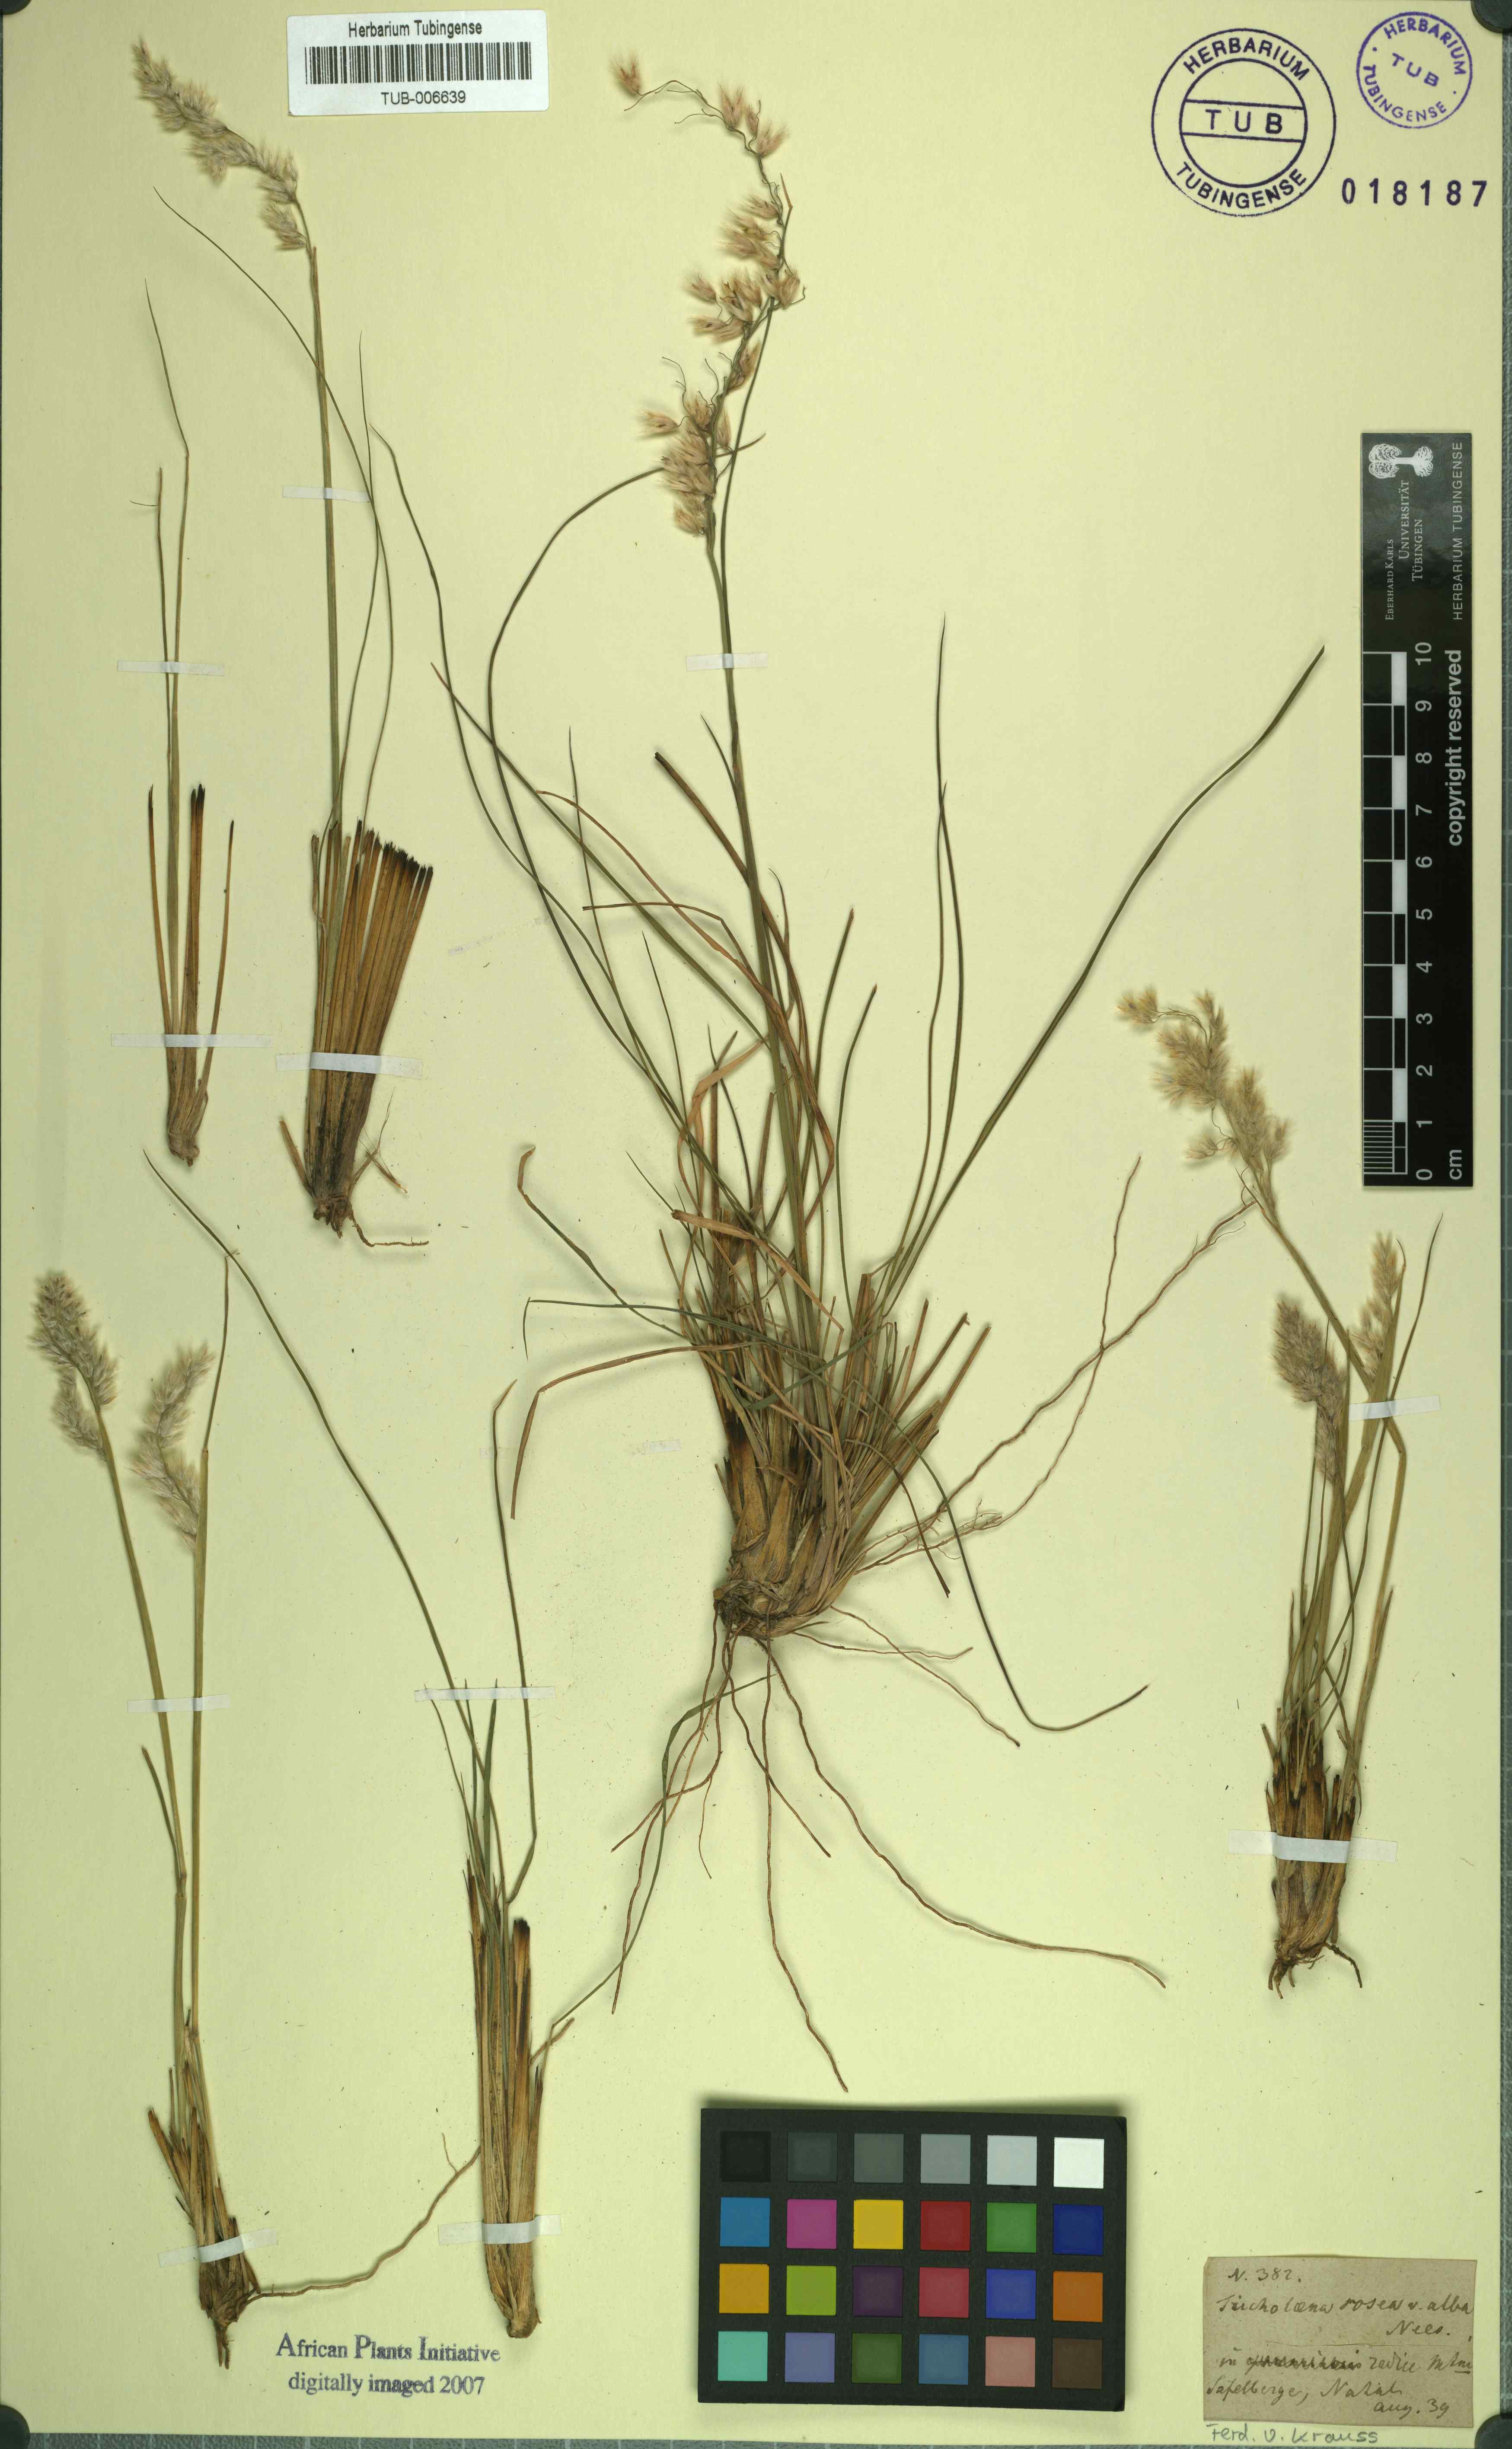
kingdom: Plantae
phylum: Tracheophyta
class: Liliopsida
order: Poales
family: Poaceae
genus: Tricholaena
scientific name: Tricholaena teneriffae
